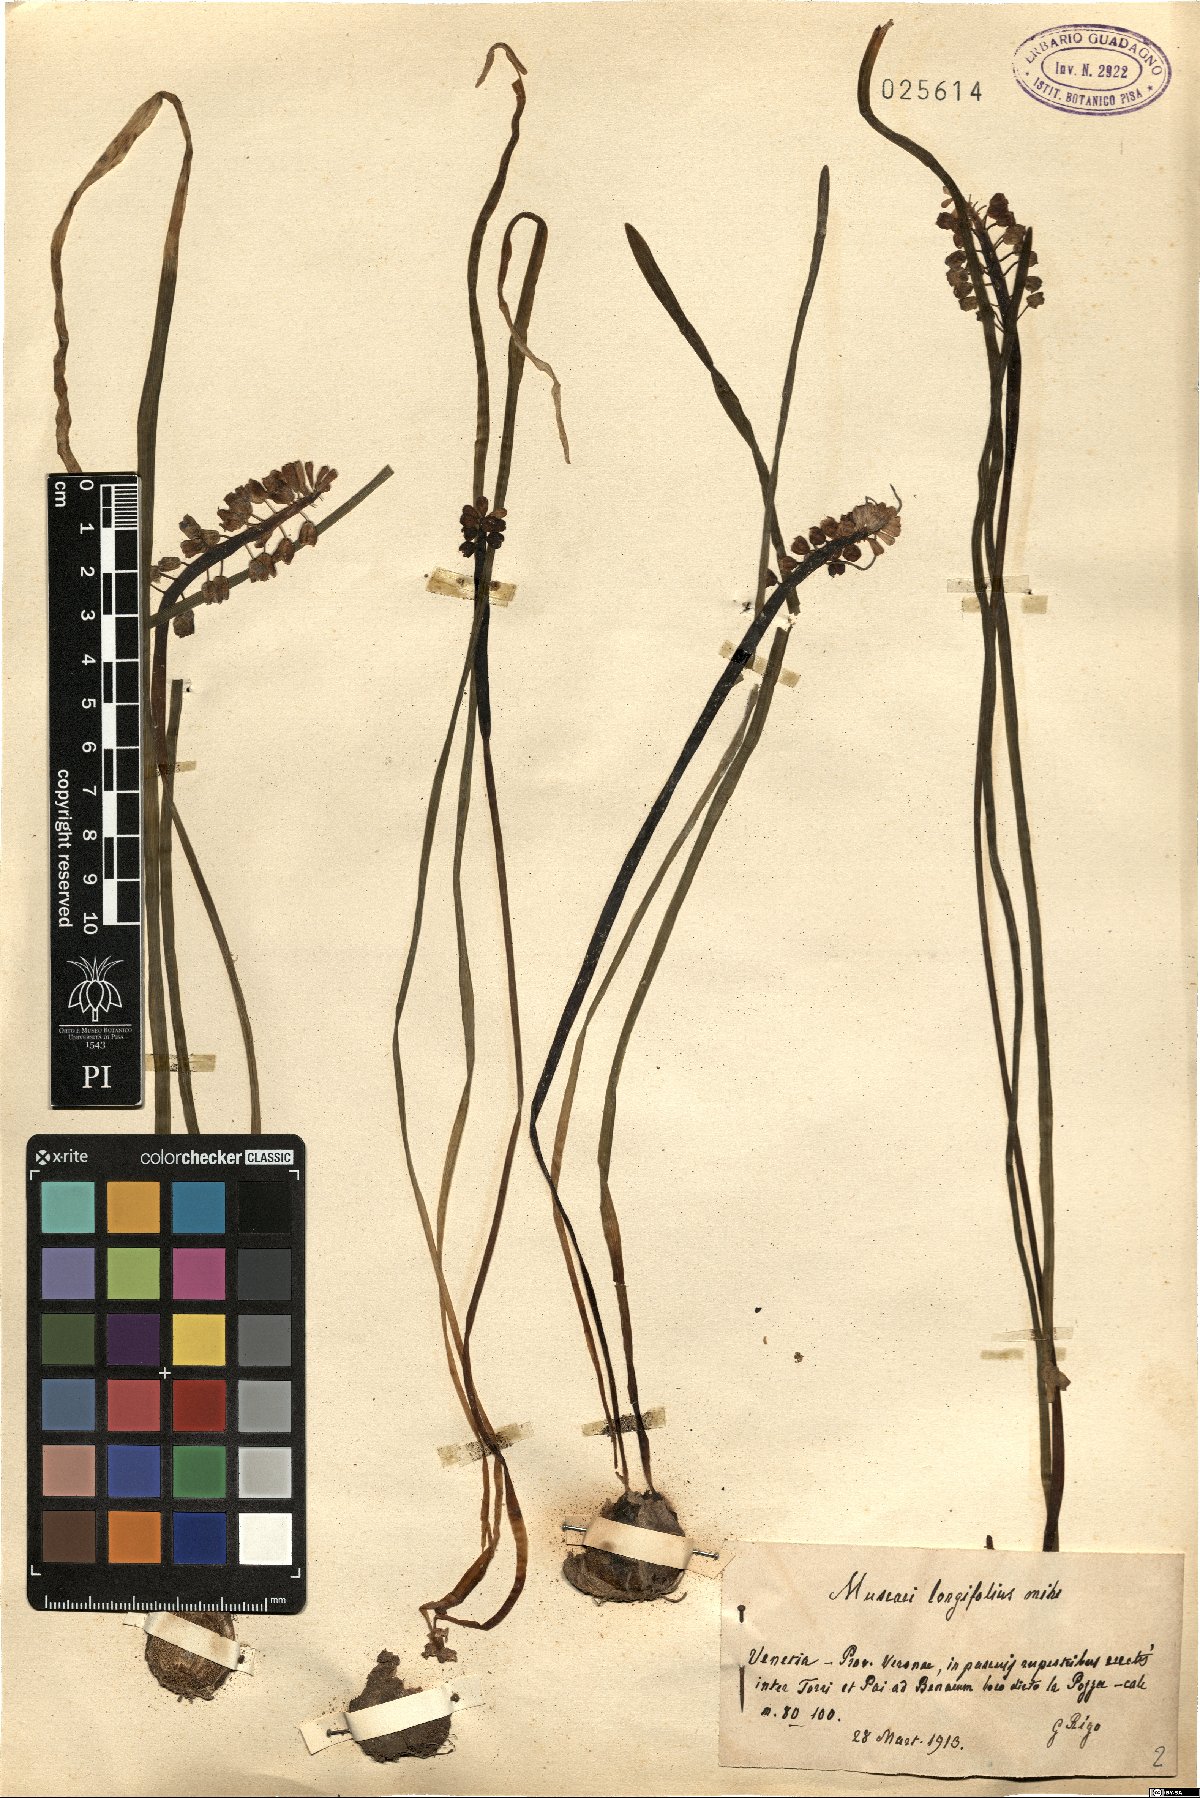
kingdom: Plantae
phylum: Tracheophyta
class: Liliopsida
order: Asparagales
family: Asparagaceae
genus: Muscari
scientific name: Muscari botryoides
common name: Compact grape-hyacinth
